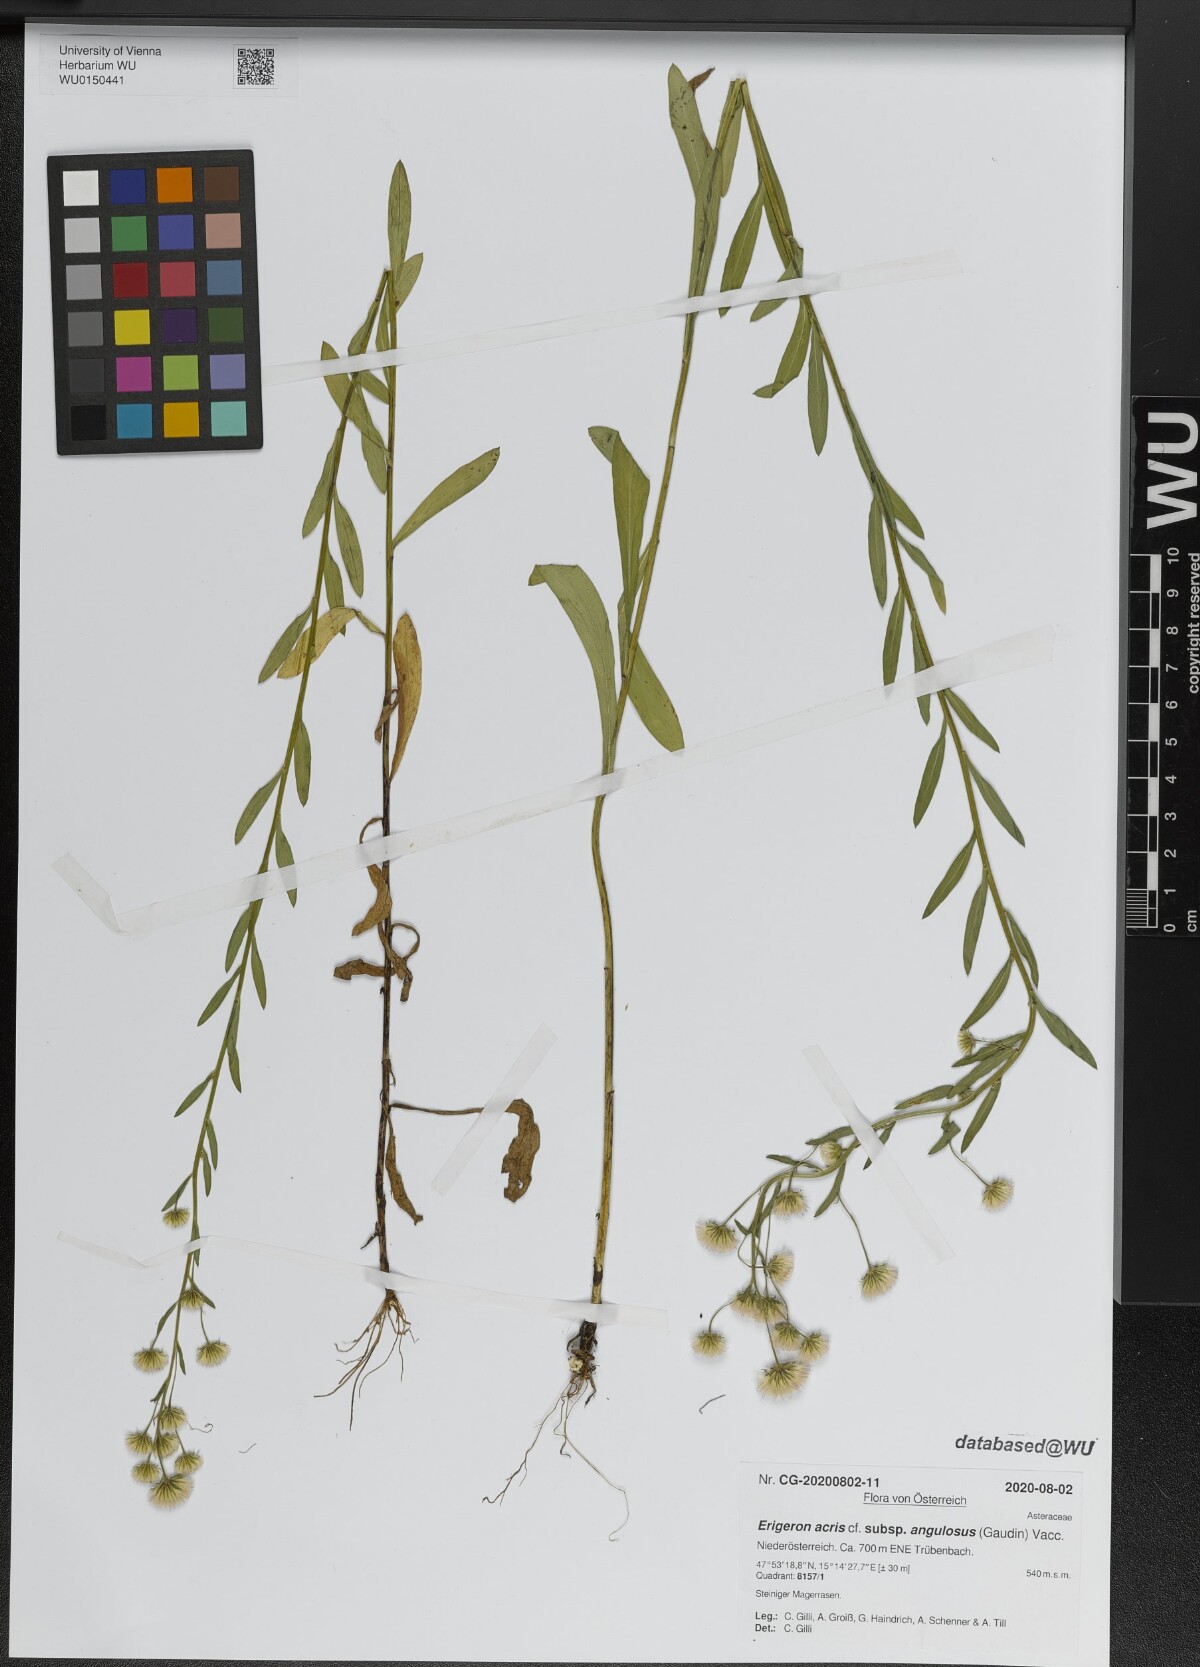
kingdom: Plantae
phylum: Tracheophyta
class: Magnoliopsida
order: Asterales
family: Asteraceae
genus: Erigeron
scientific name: Erigeron angulosus
